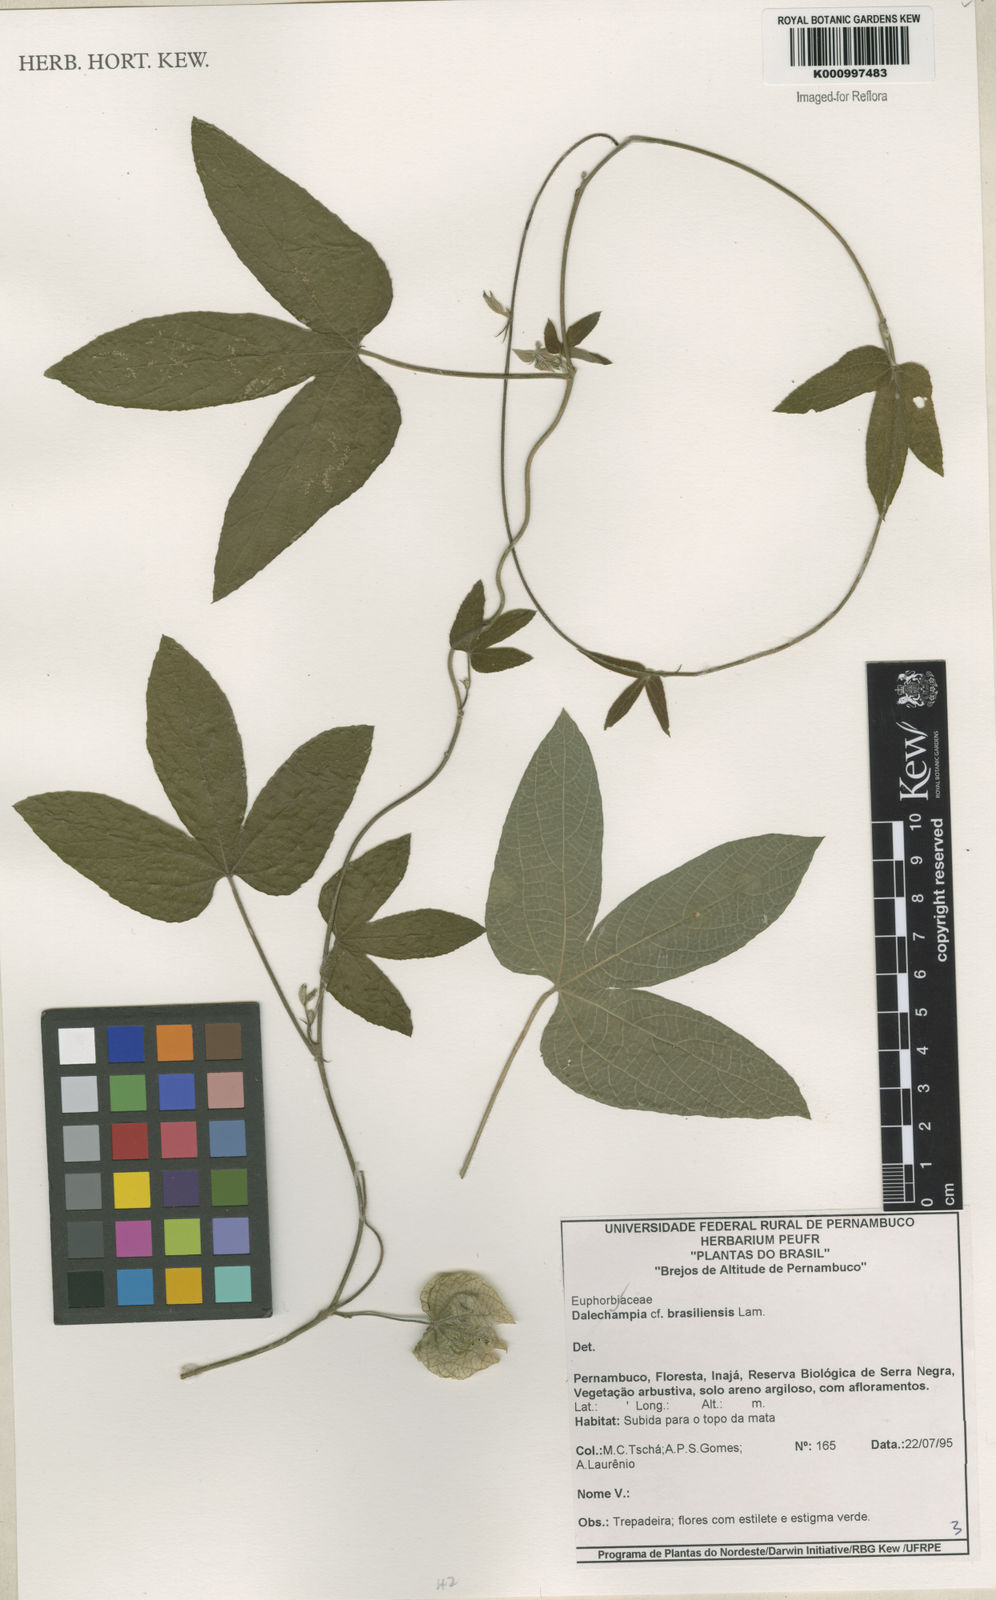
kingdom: Plantae
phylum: Tracheophyta
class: Magnoliopsida
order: Malpighiales
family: Euphorbiaceae
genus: Dalechampia
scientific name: Dalechampia brasiliensis
